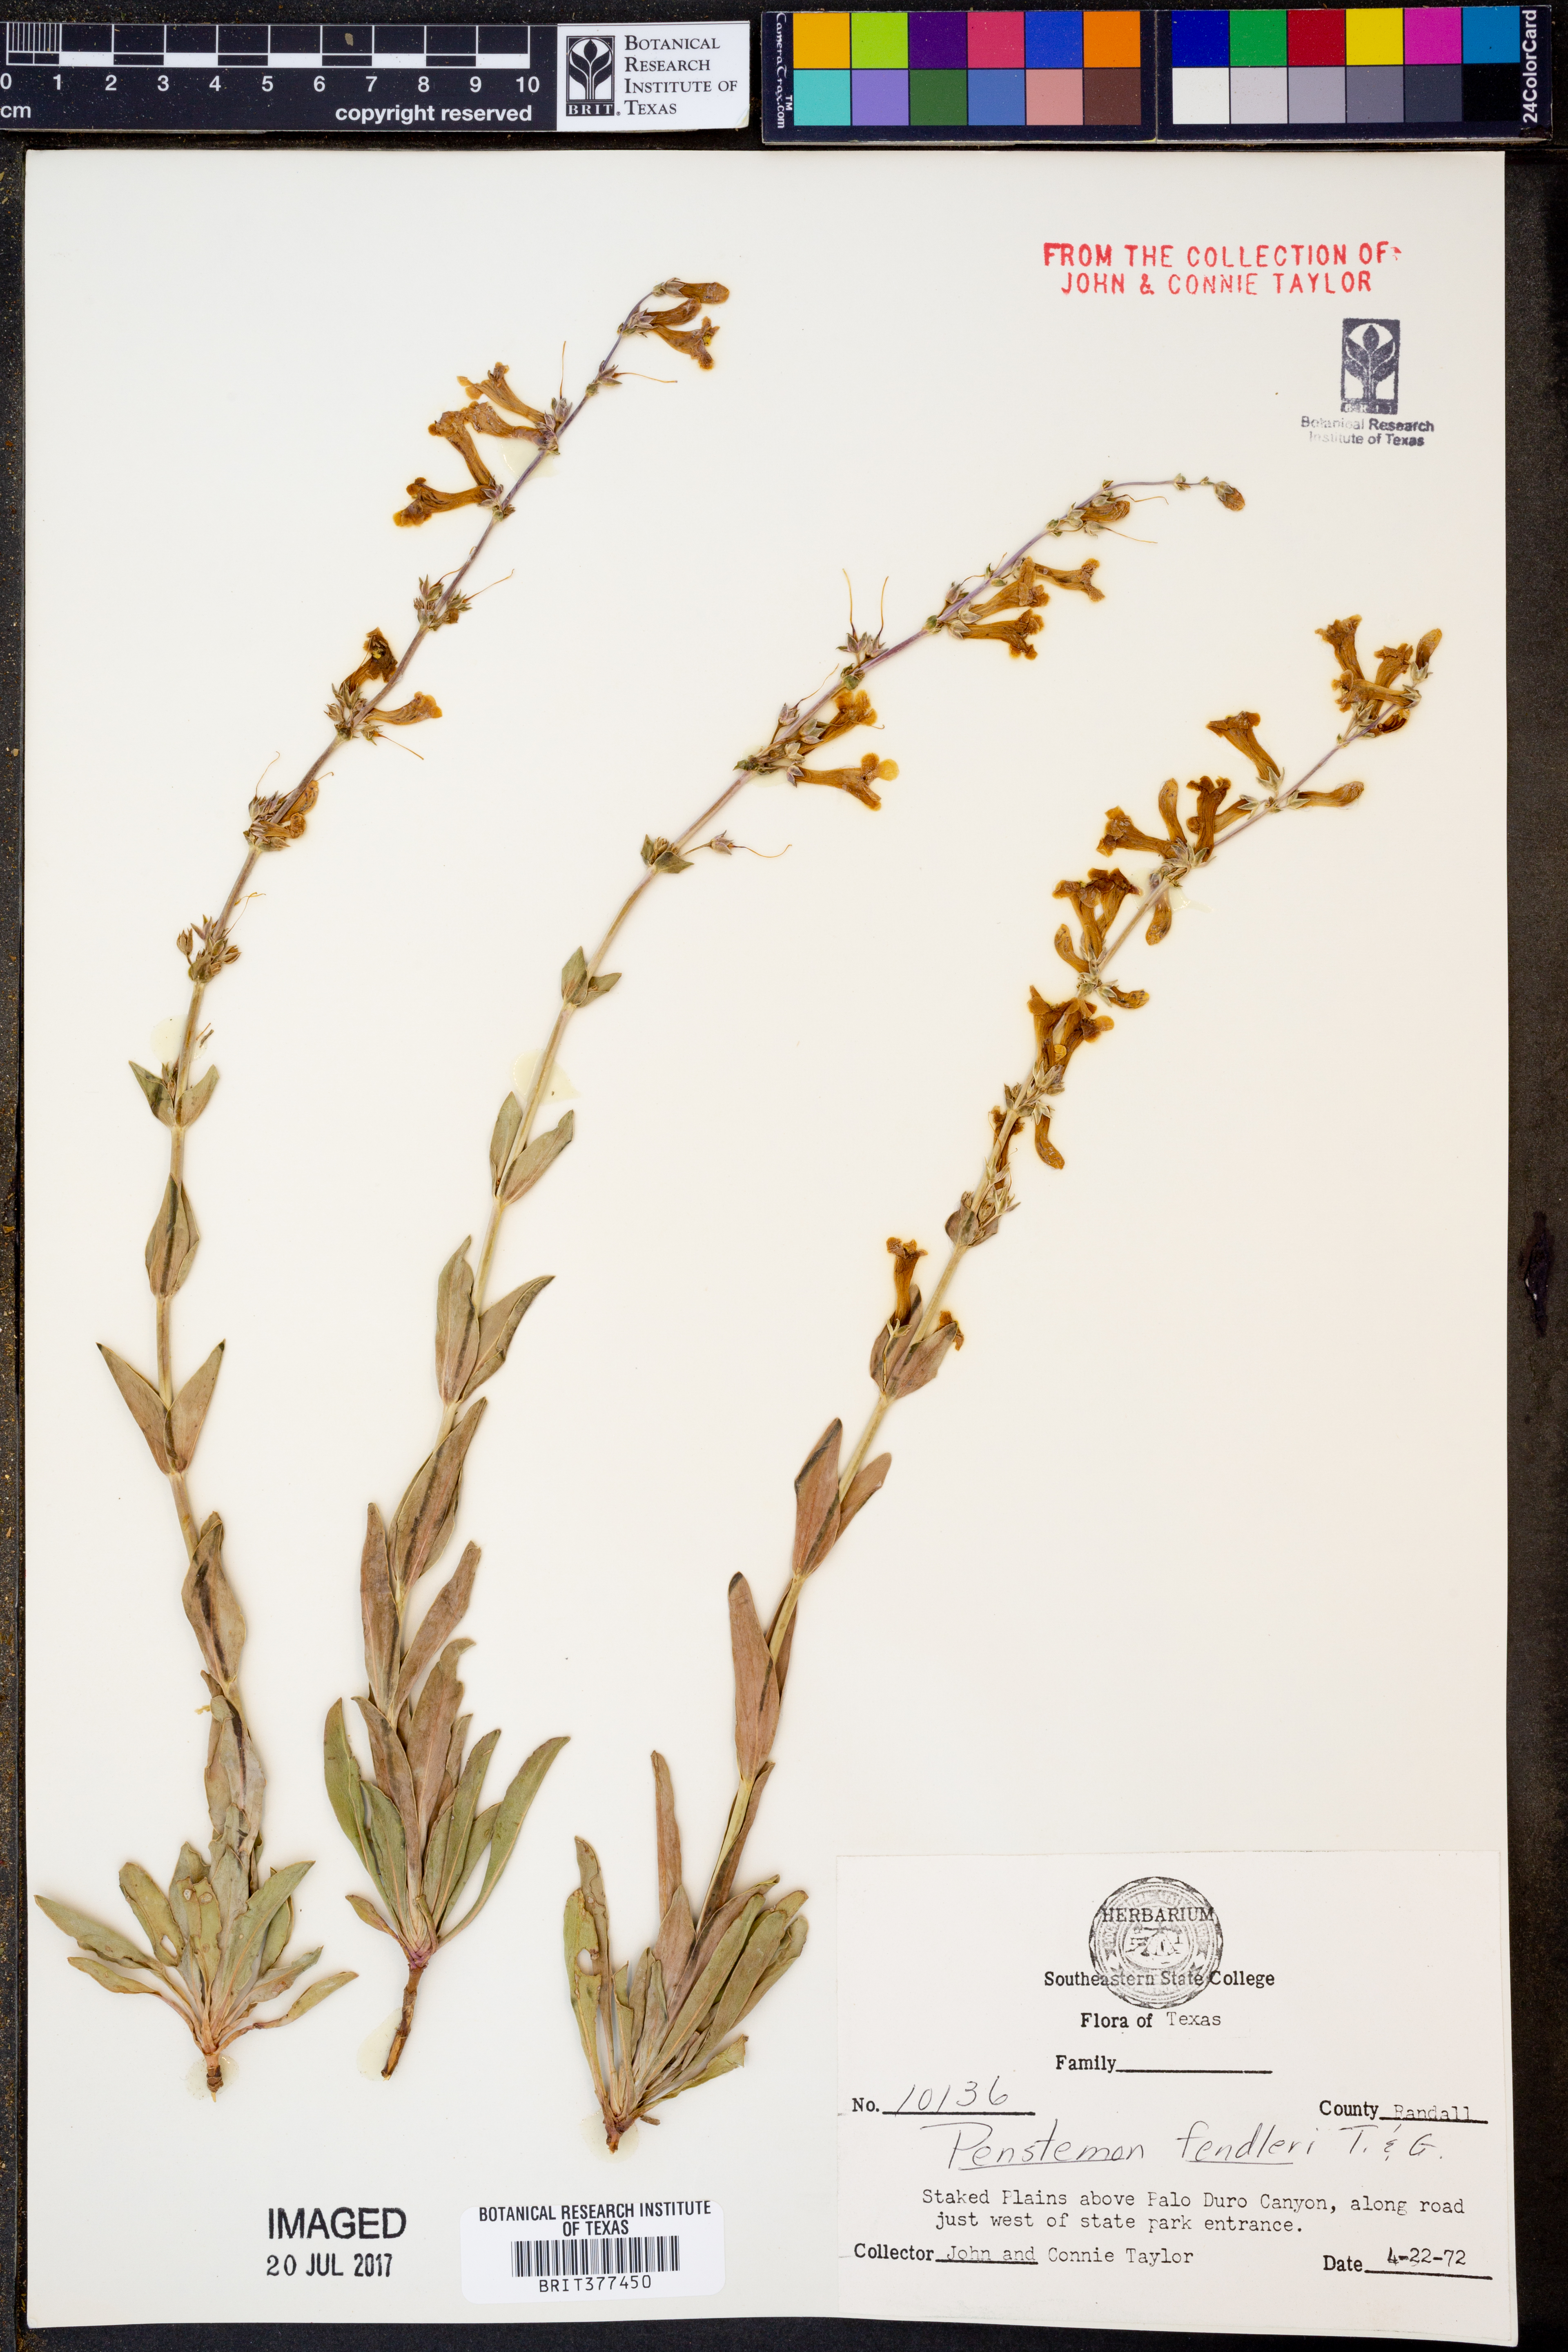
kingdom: Plantae
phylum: Tracheophyta
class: Magnoliopsida
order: Lamiales
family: Plantaginaceae
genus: Penstemon
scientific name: Penstemon fendleri
